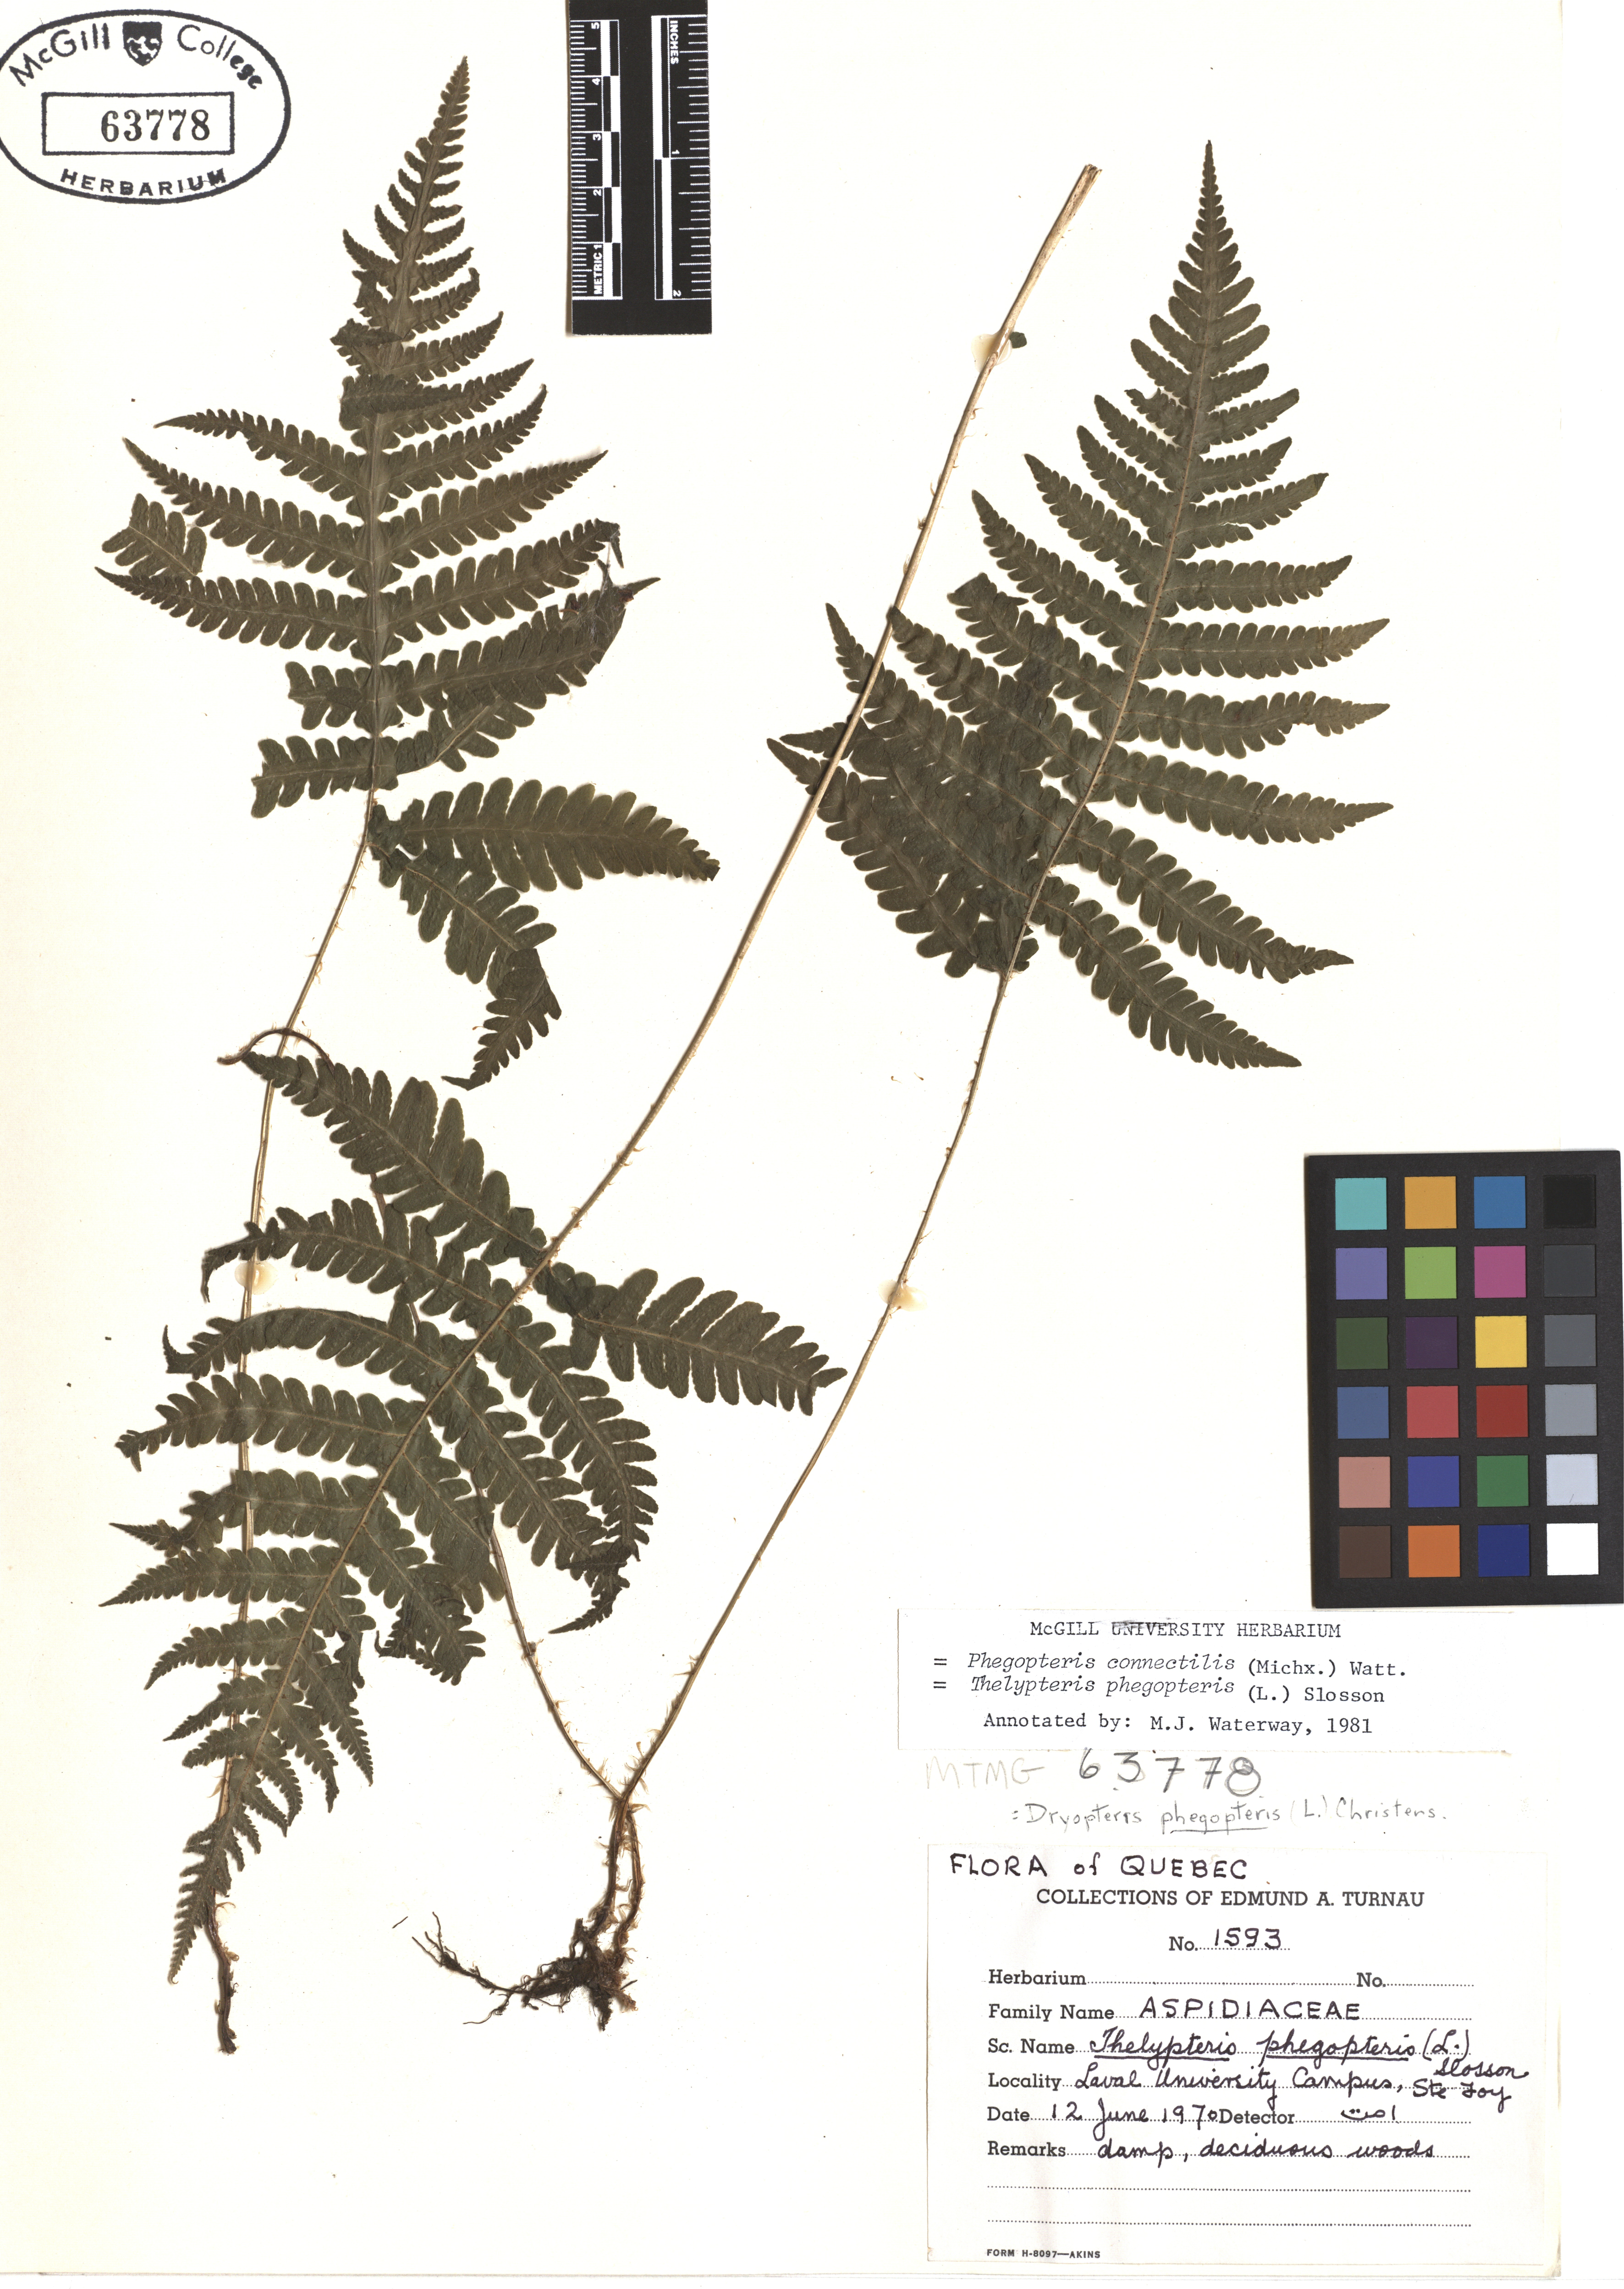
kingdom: Plantae
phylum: Tracheophyta
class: Polypodiopsida
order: Polypodiales
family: Thelypteridaceae
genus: Phegopteris
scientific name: Phegopteris connectilis
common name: Beech fern
